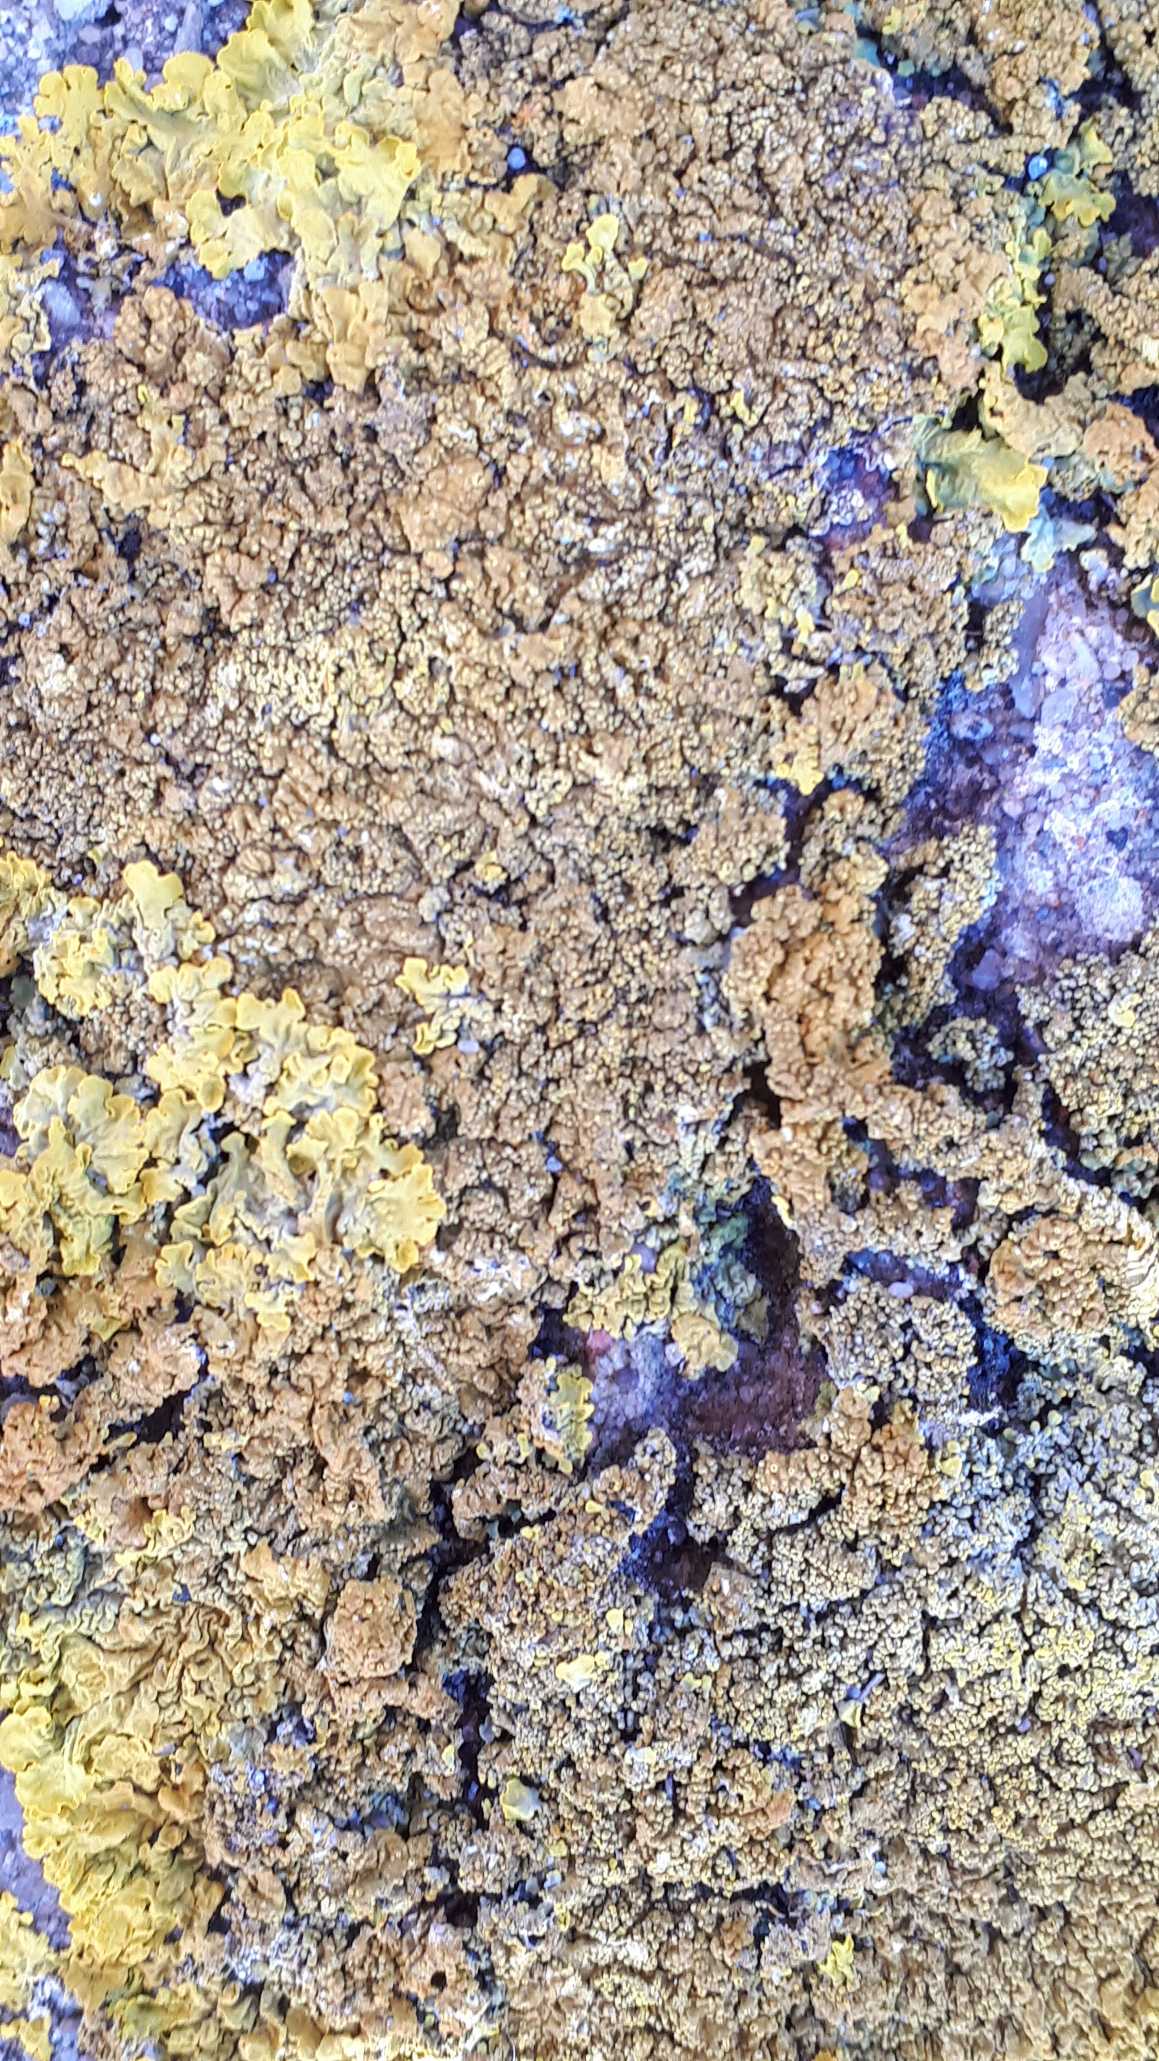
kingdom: Fungi
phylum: Ascomycota
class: Lecanoromycetes
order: Teloschistales
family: Teloschistaceae
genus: Xanthoria
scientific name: Xanthoria calcicola
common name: Vortet væggelav
